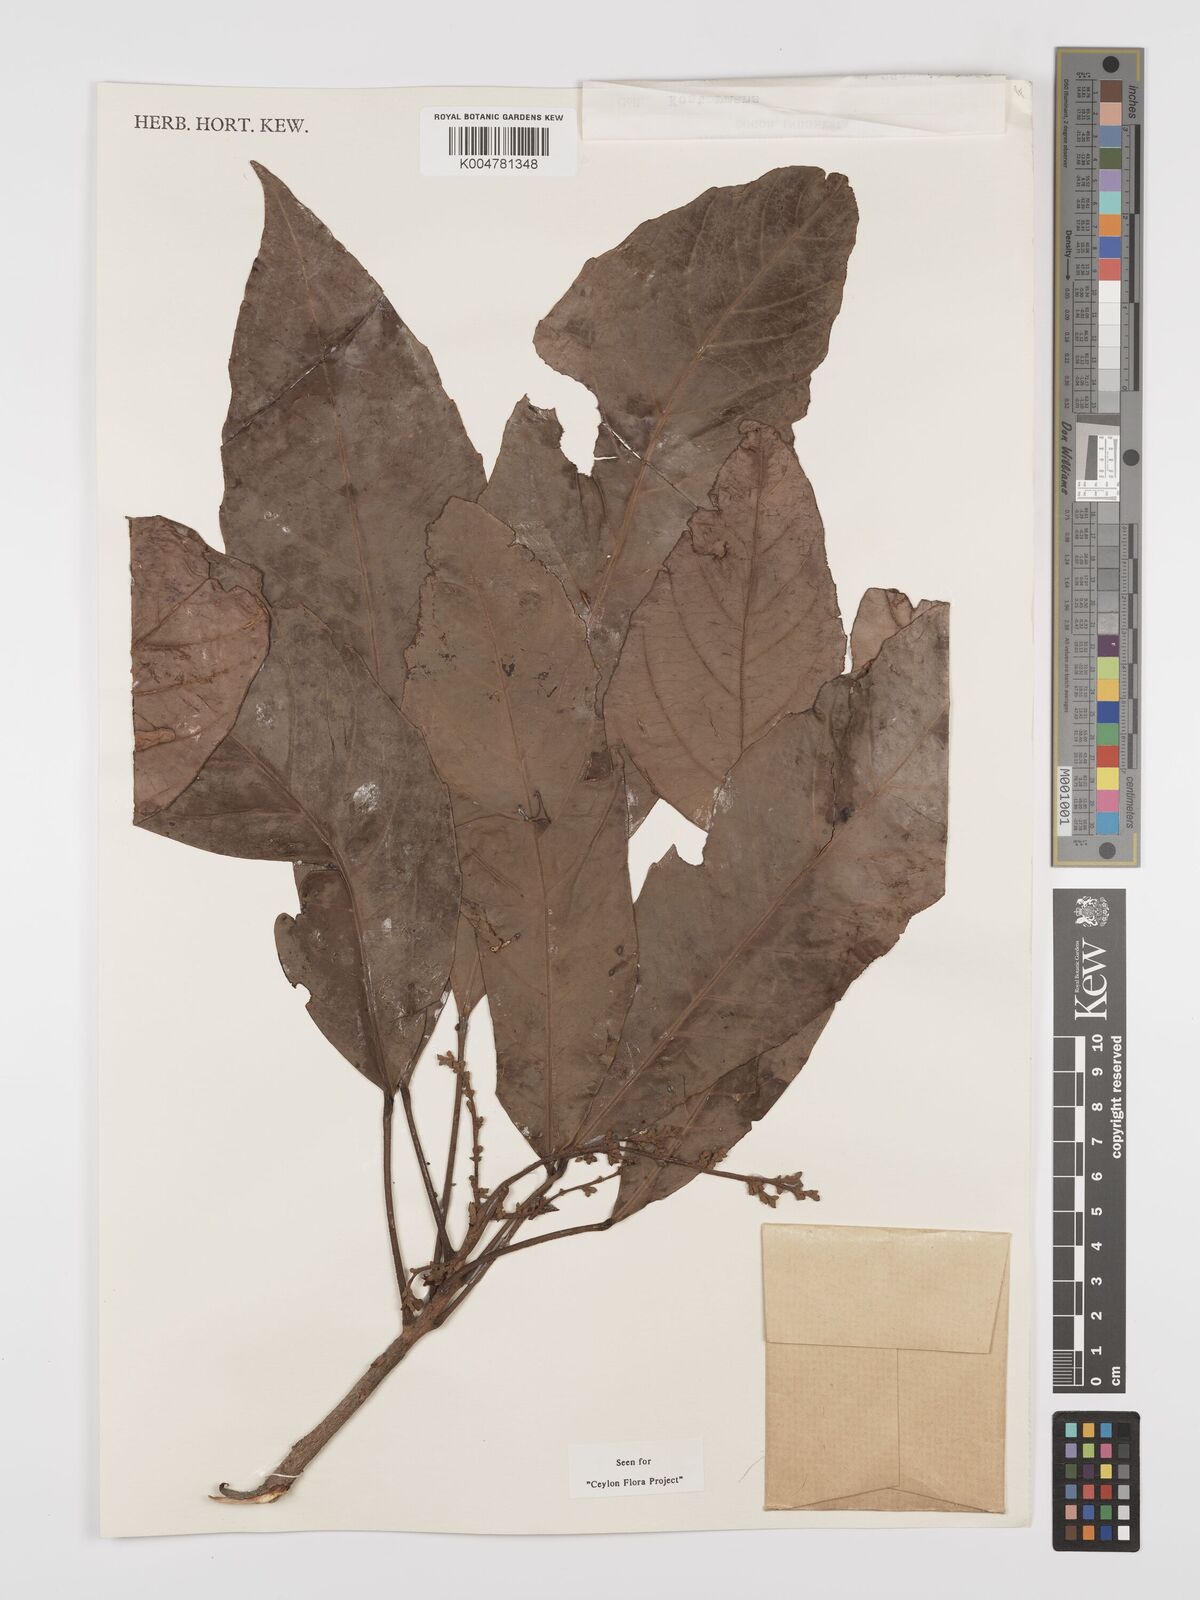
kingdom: Plantae
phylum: Tracheophyta
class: Magnoliopsida
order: Malpighiales
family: Euphorbiaceae
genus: Paracroton
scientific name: Paracroton zeylanicus
